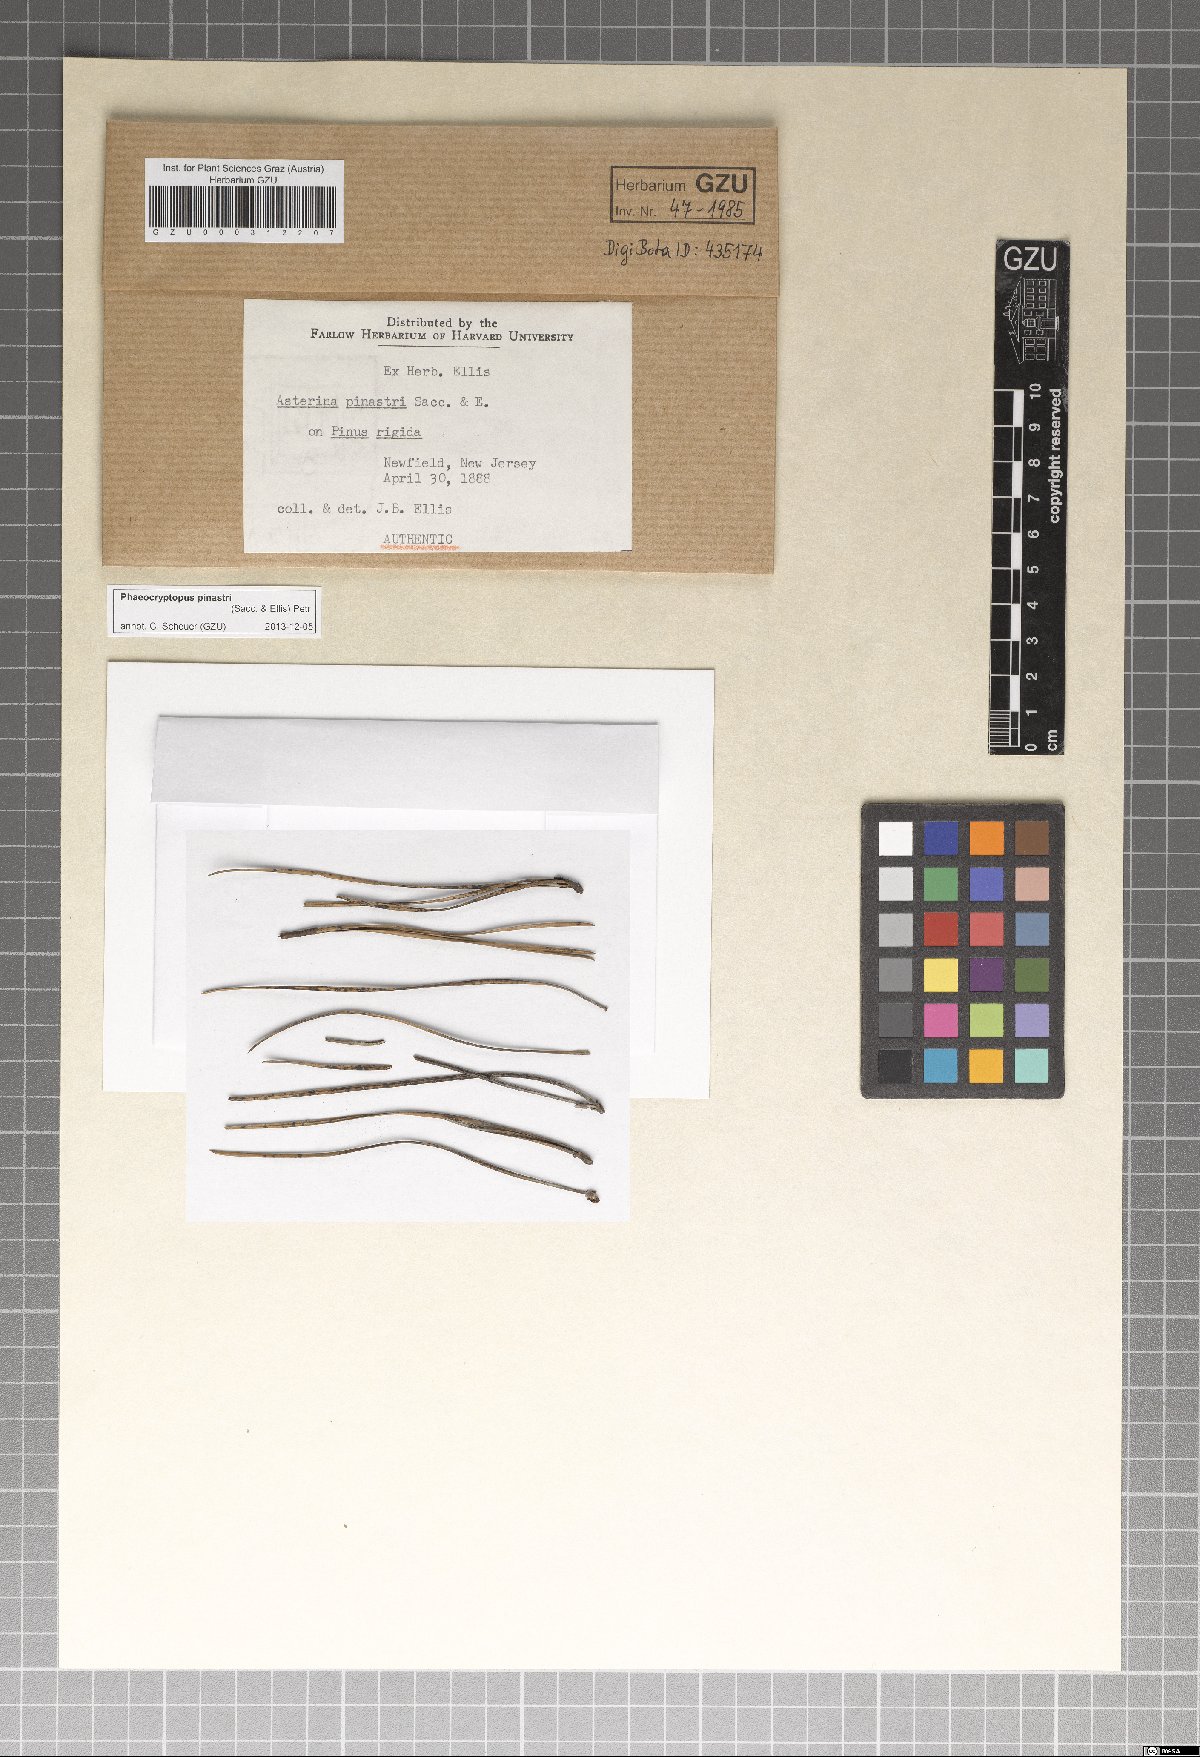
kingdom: Fungi
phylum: Ascomycota
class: Dothideomycetes
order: Capnodiales
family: Capnodiaceae
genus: Phaeocryptopus
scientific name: Phaeocryptopus pinastri
